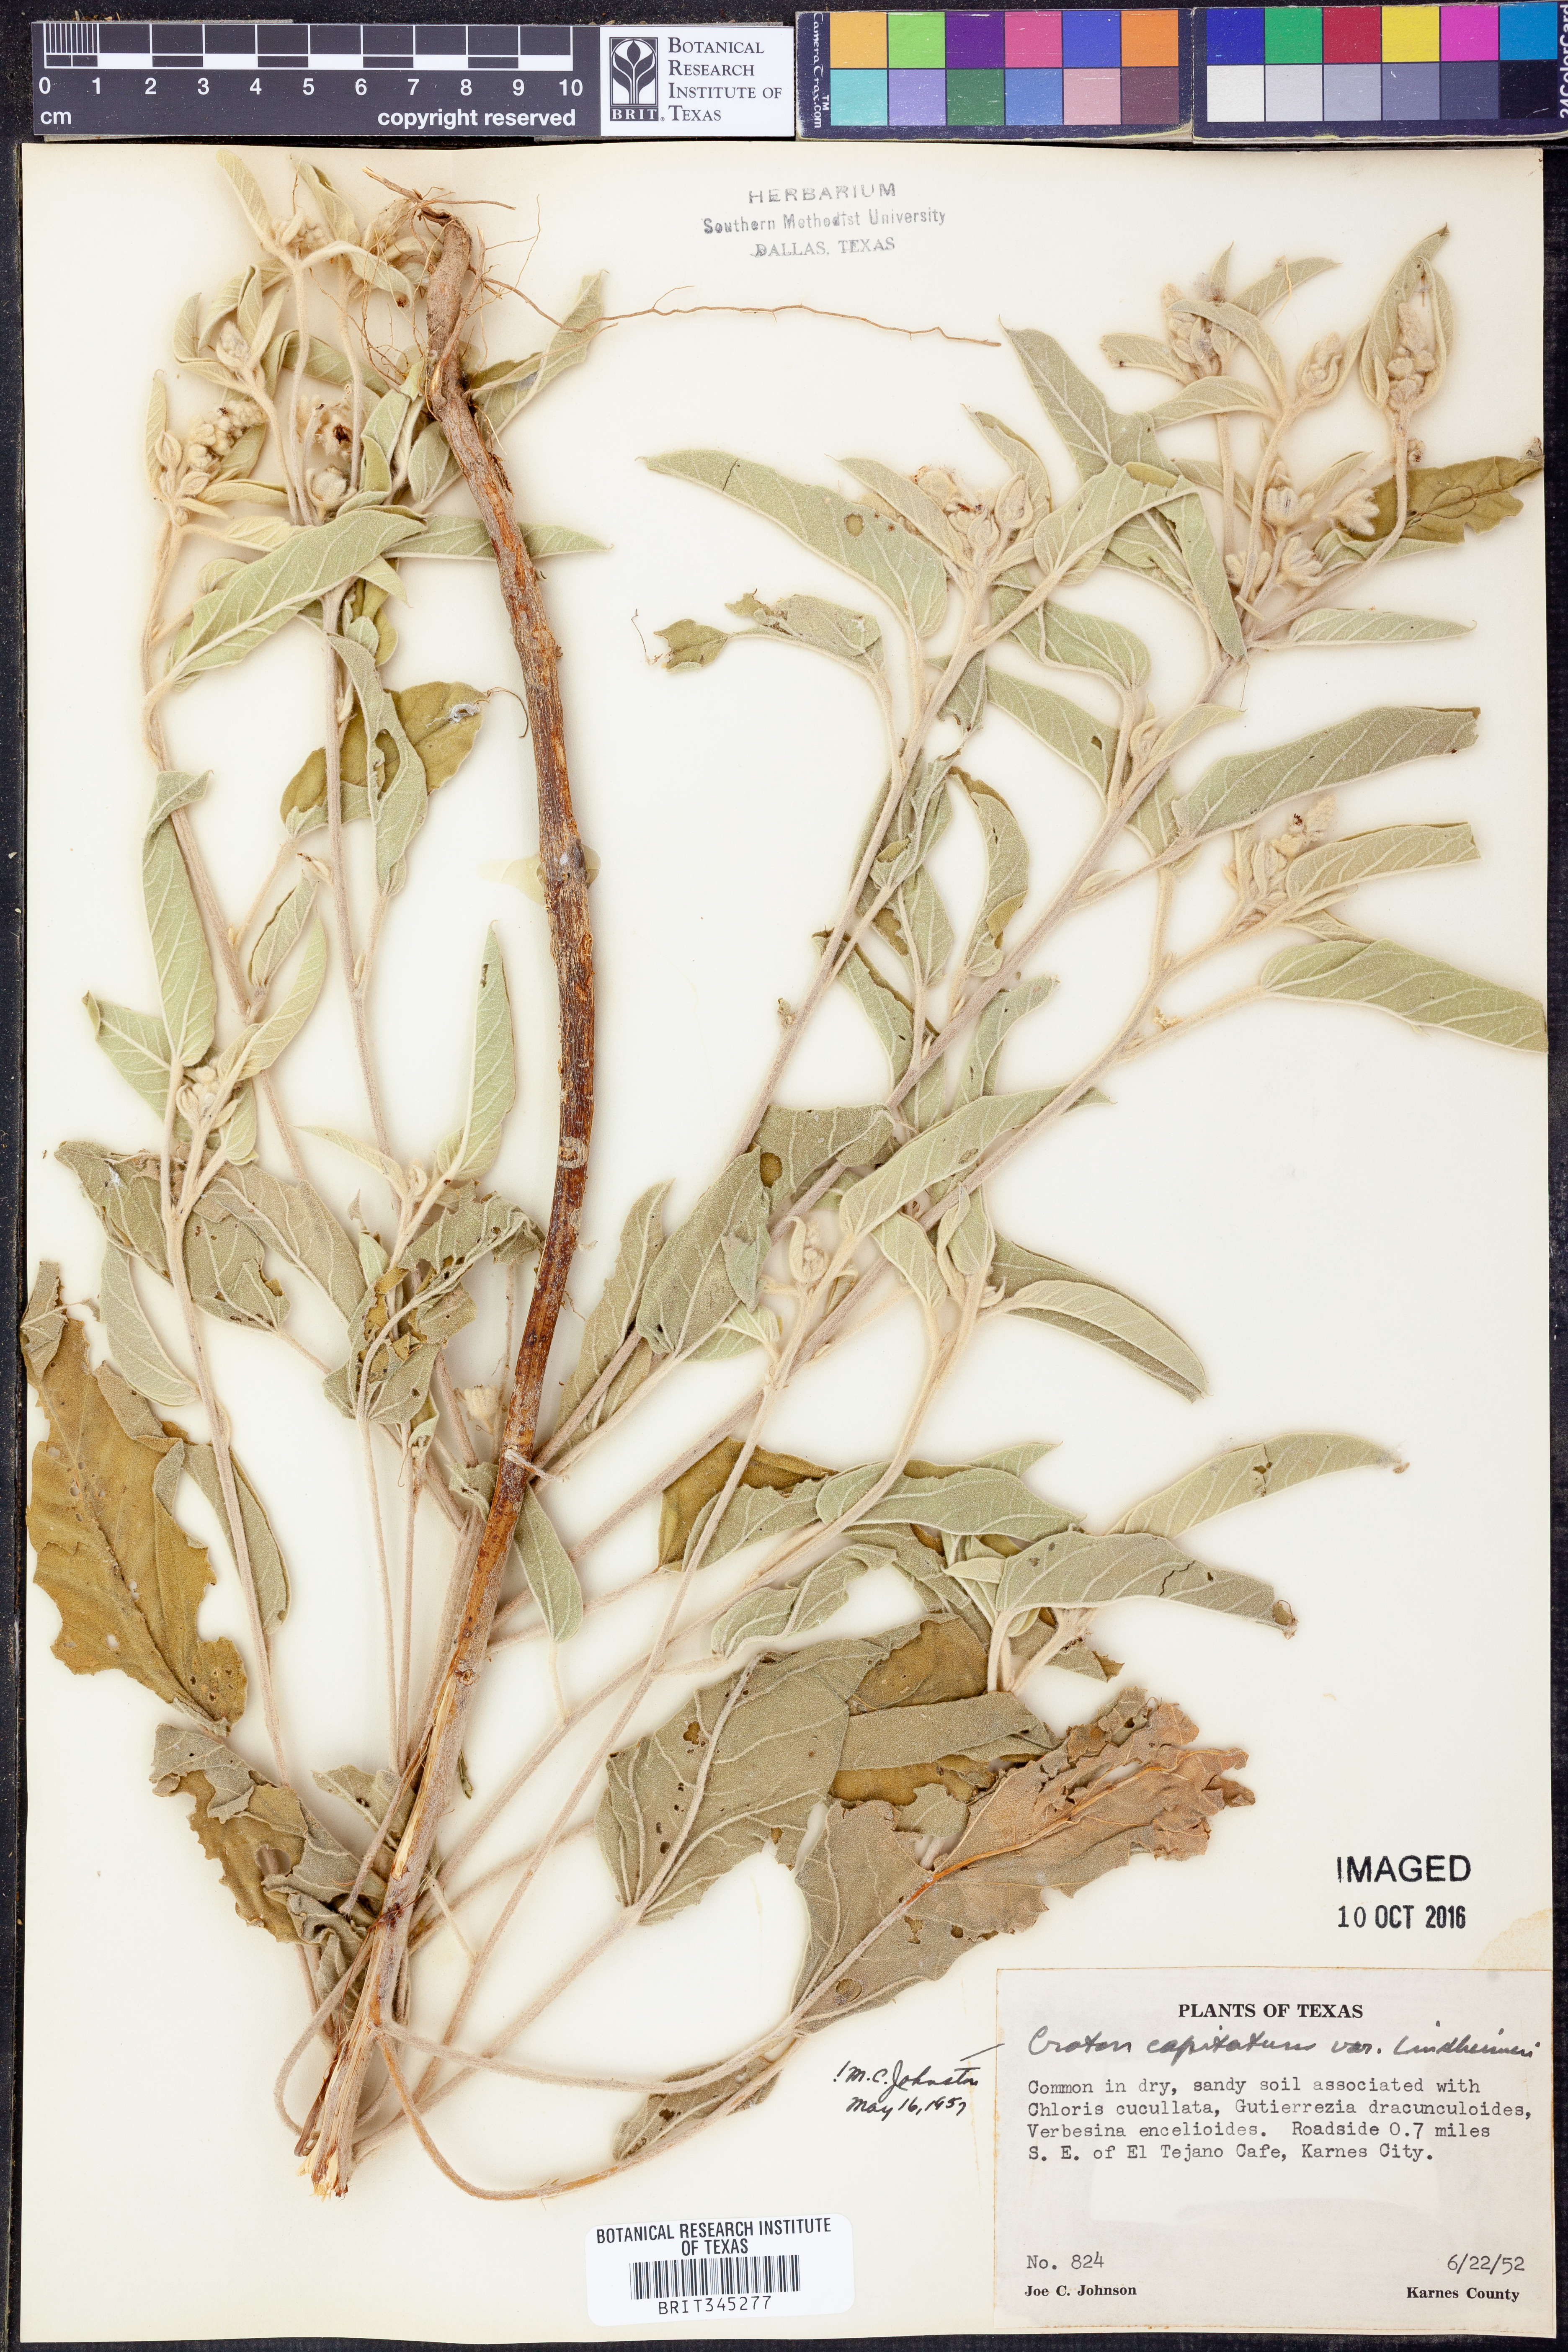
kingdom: Plantae
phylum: Tracheophyta
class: Magnoliopsida
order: Malpighiales
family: Euphorbiaceae
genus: Croton
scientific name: Croton lindheimeri
